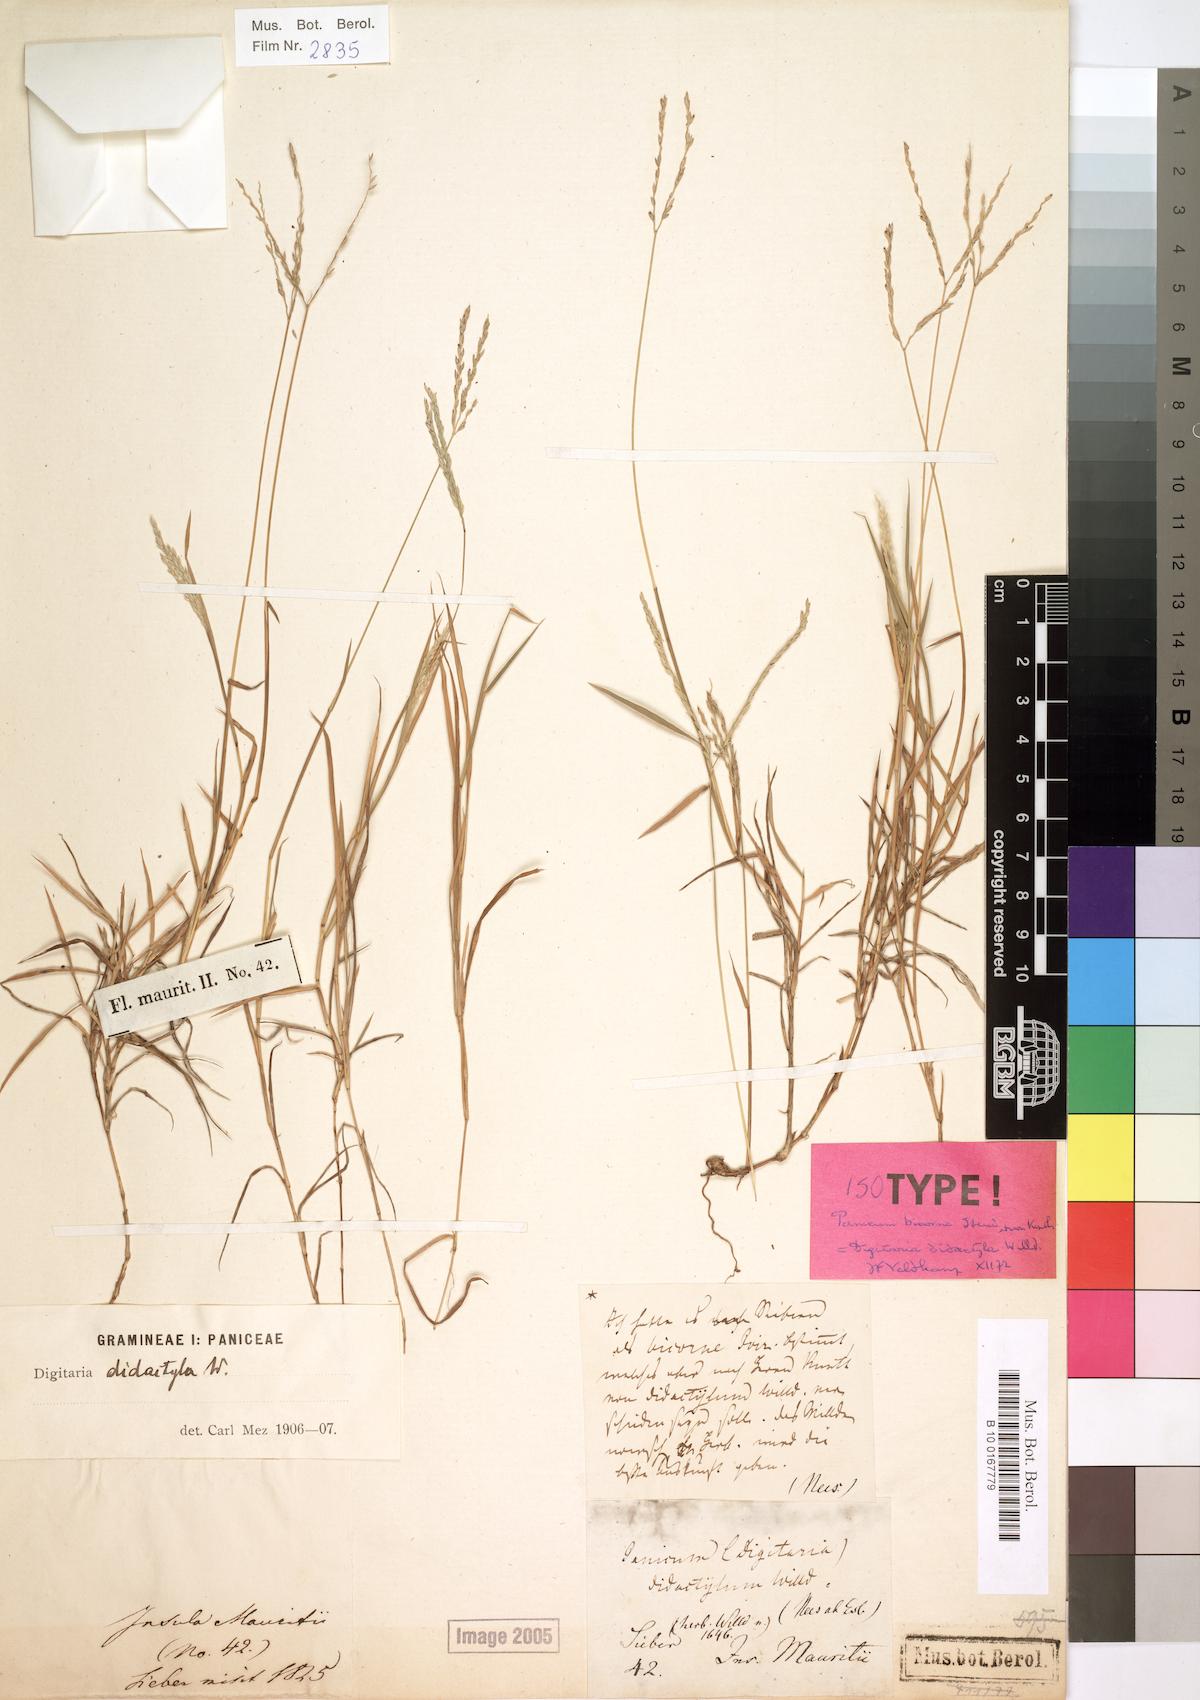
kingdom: Plantae
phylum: Tracheophyta
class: Liliopsida
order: Poales
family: Poaceae
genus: Digitaria
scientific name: Digitaria didactyla
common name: Blue couch
